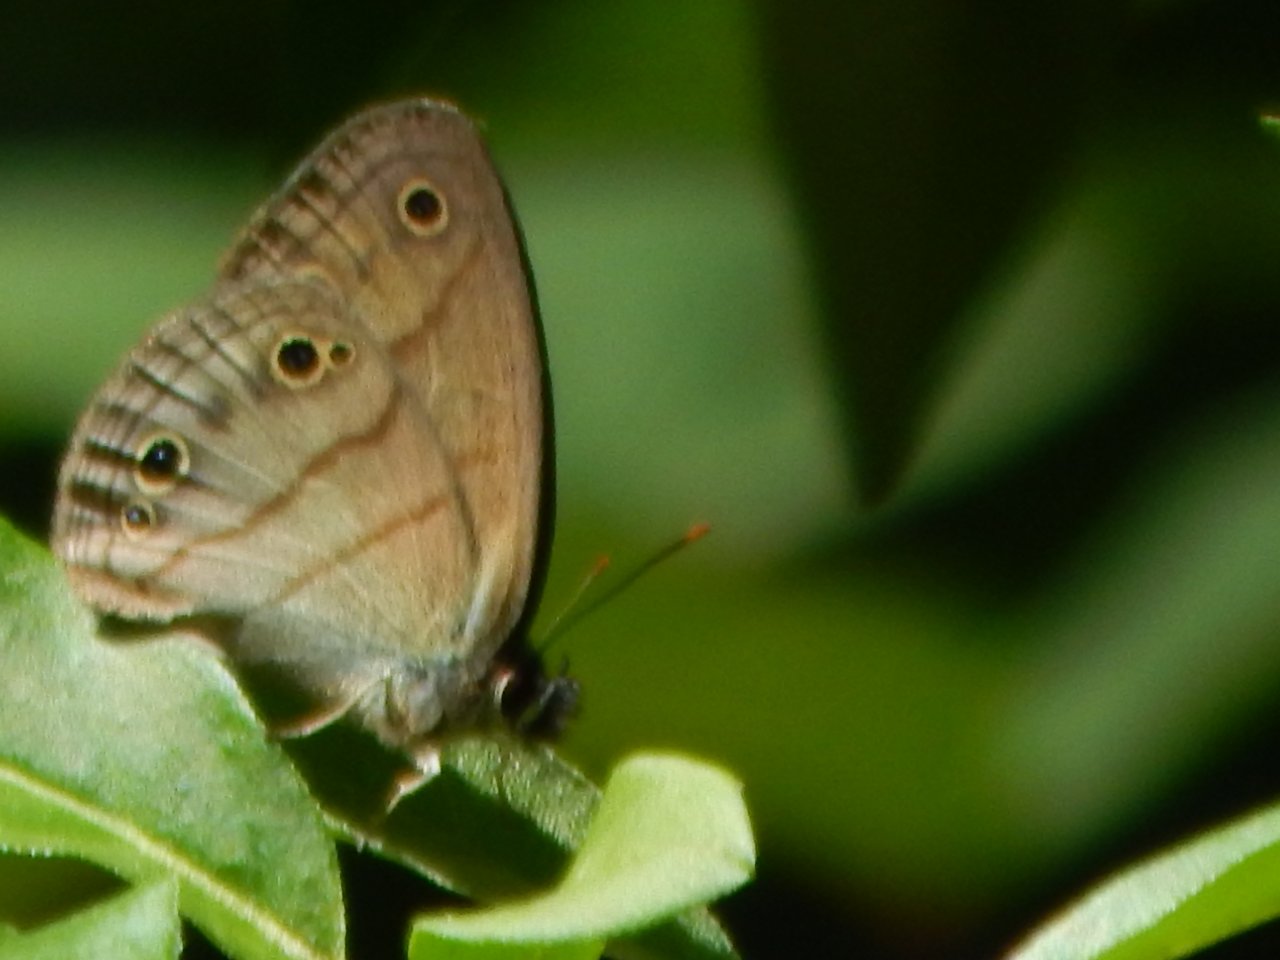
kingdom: Animalia
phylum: Arthropoda
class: Insecta
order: Lepidoptera
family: Nymphalidae
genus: Euptychia
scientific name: Euptychia cymela
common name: Little Wood Satyr
